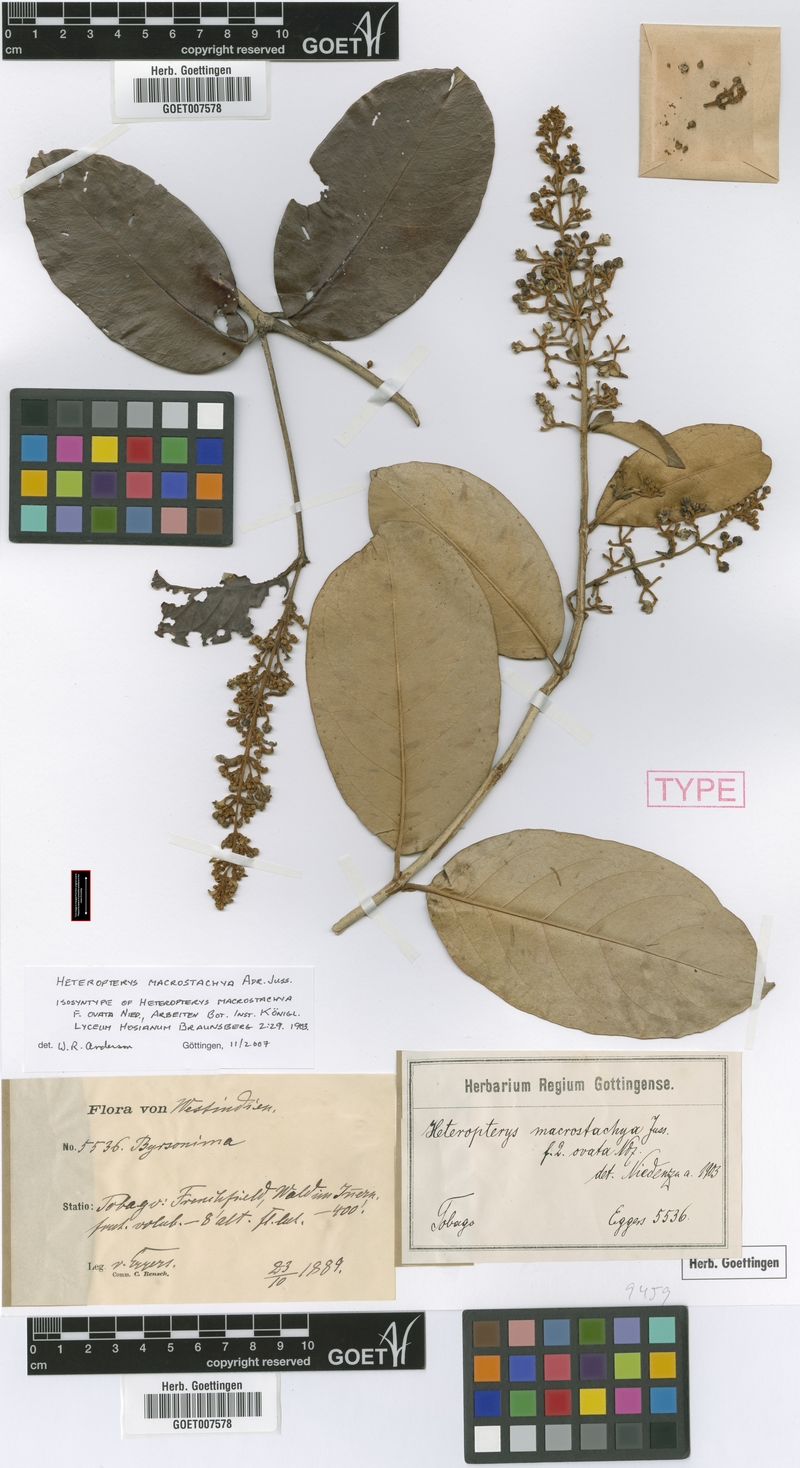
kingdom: Plantae
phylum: Tracheophyta
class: Magnoliopsida
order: Malpighiales
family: Malpighiaceae
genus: Heteropterys
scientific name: Heteropterys macrostachya
